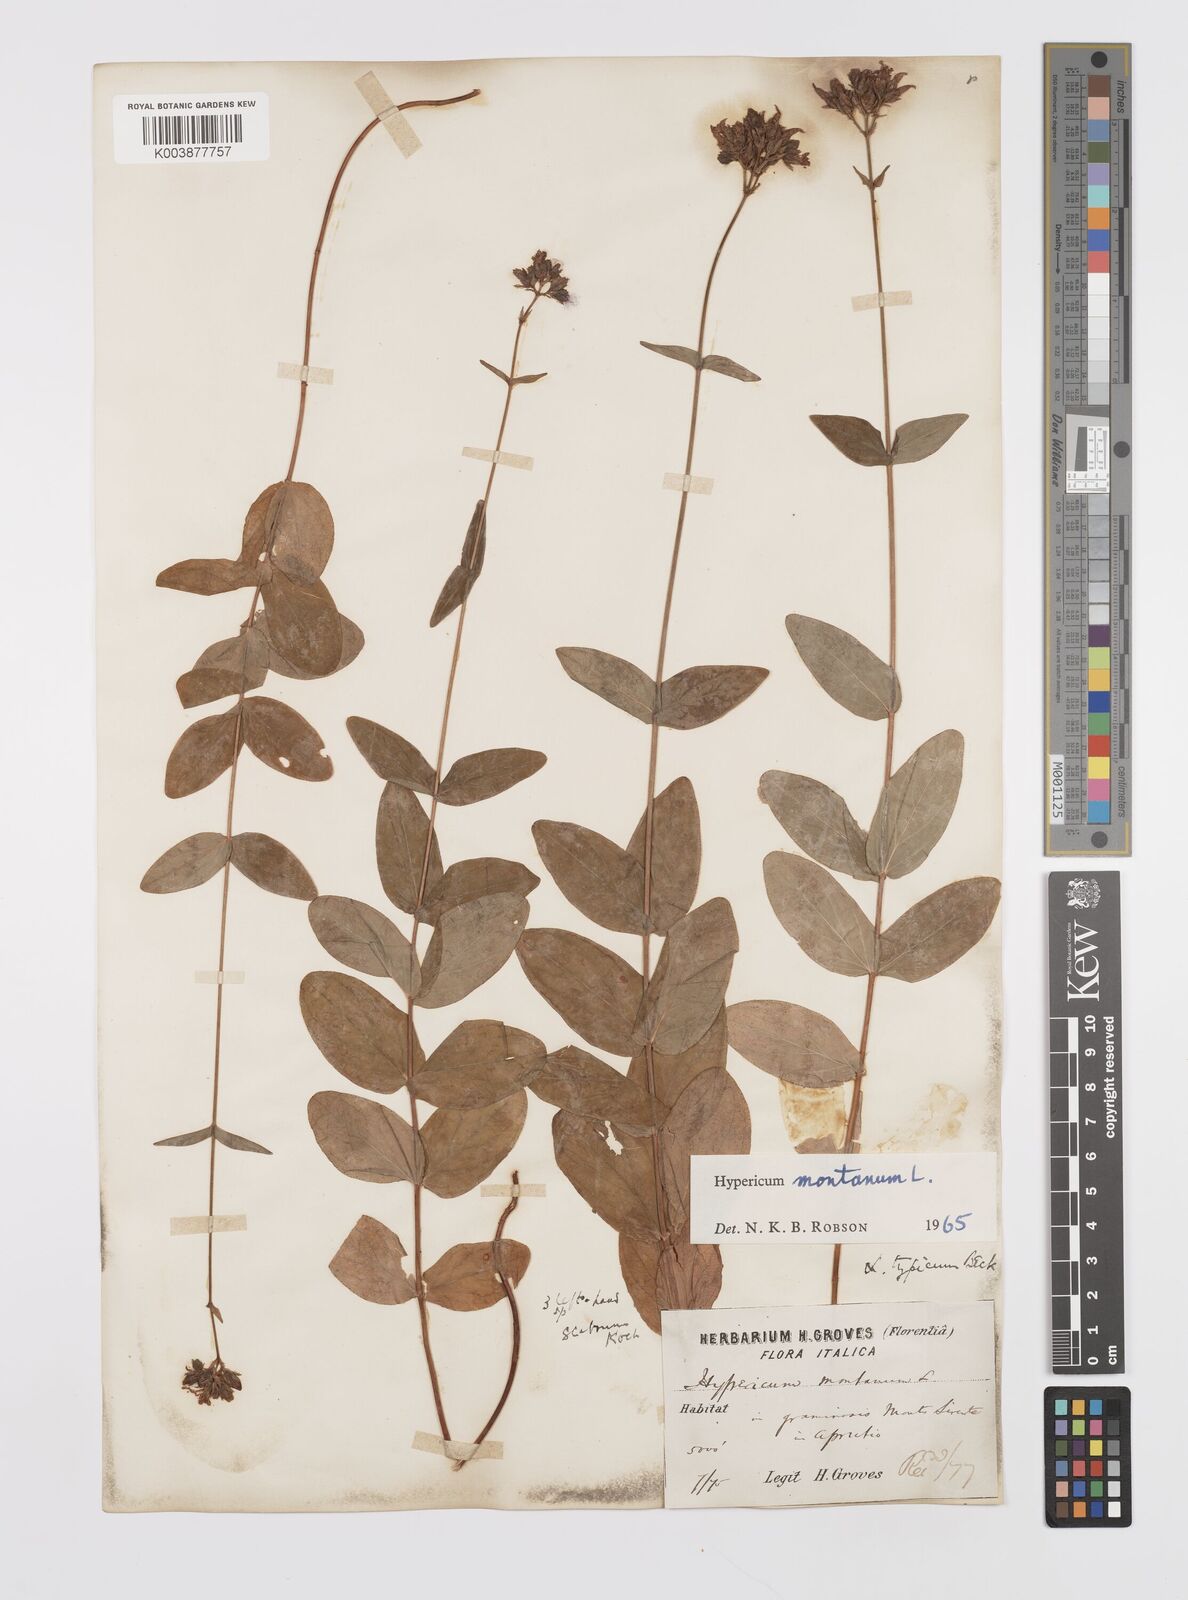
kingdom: Plantae
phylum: Tracheophyta
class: Magnoliopsida
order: Malpighiales
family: Hypericaceae
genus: Hypericum
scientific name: Hypericum montanum
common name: Pale st. john's-wort
